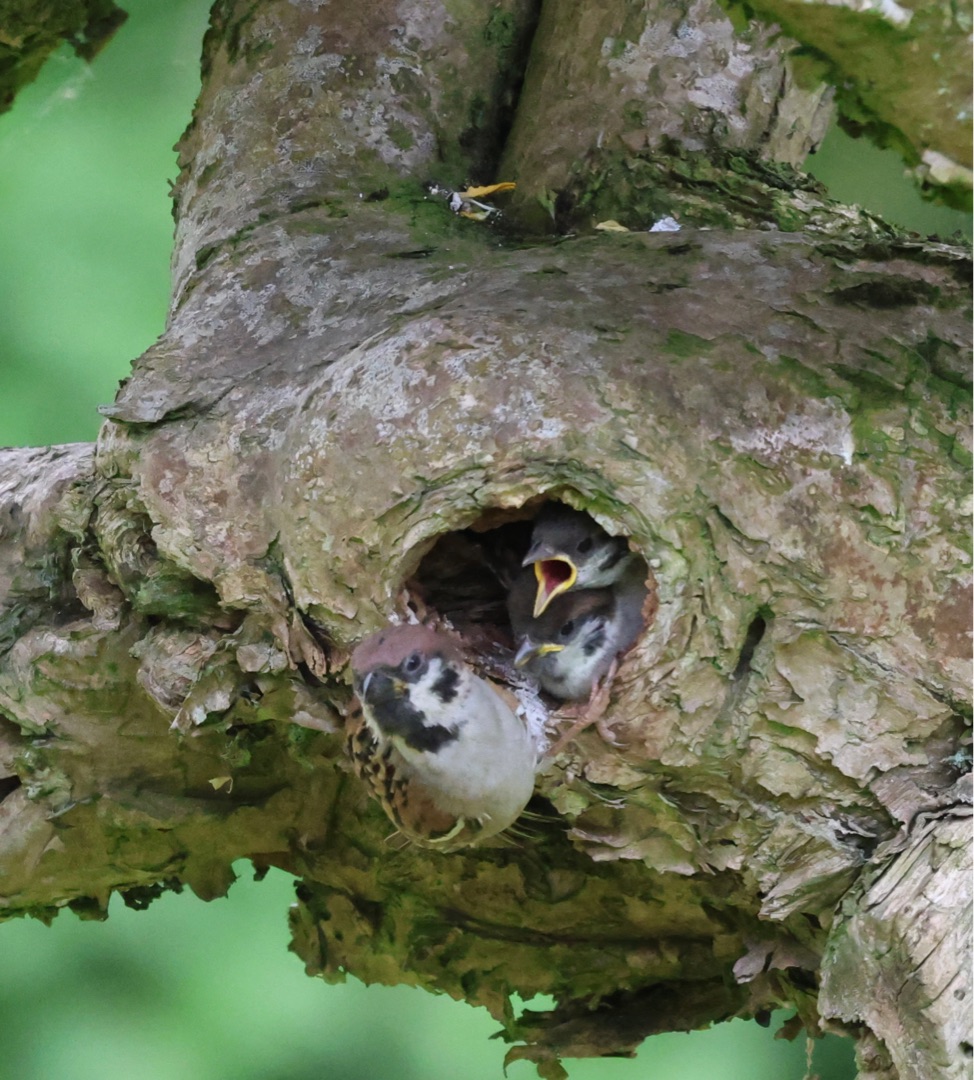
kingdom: Animalia
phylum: Chordata
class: Aves
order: Passeriformes
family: Passeridae
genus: Passer
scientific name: Passer montanus
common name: Skovspurv
